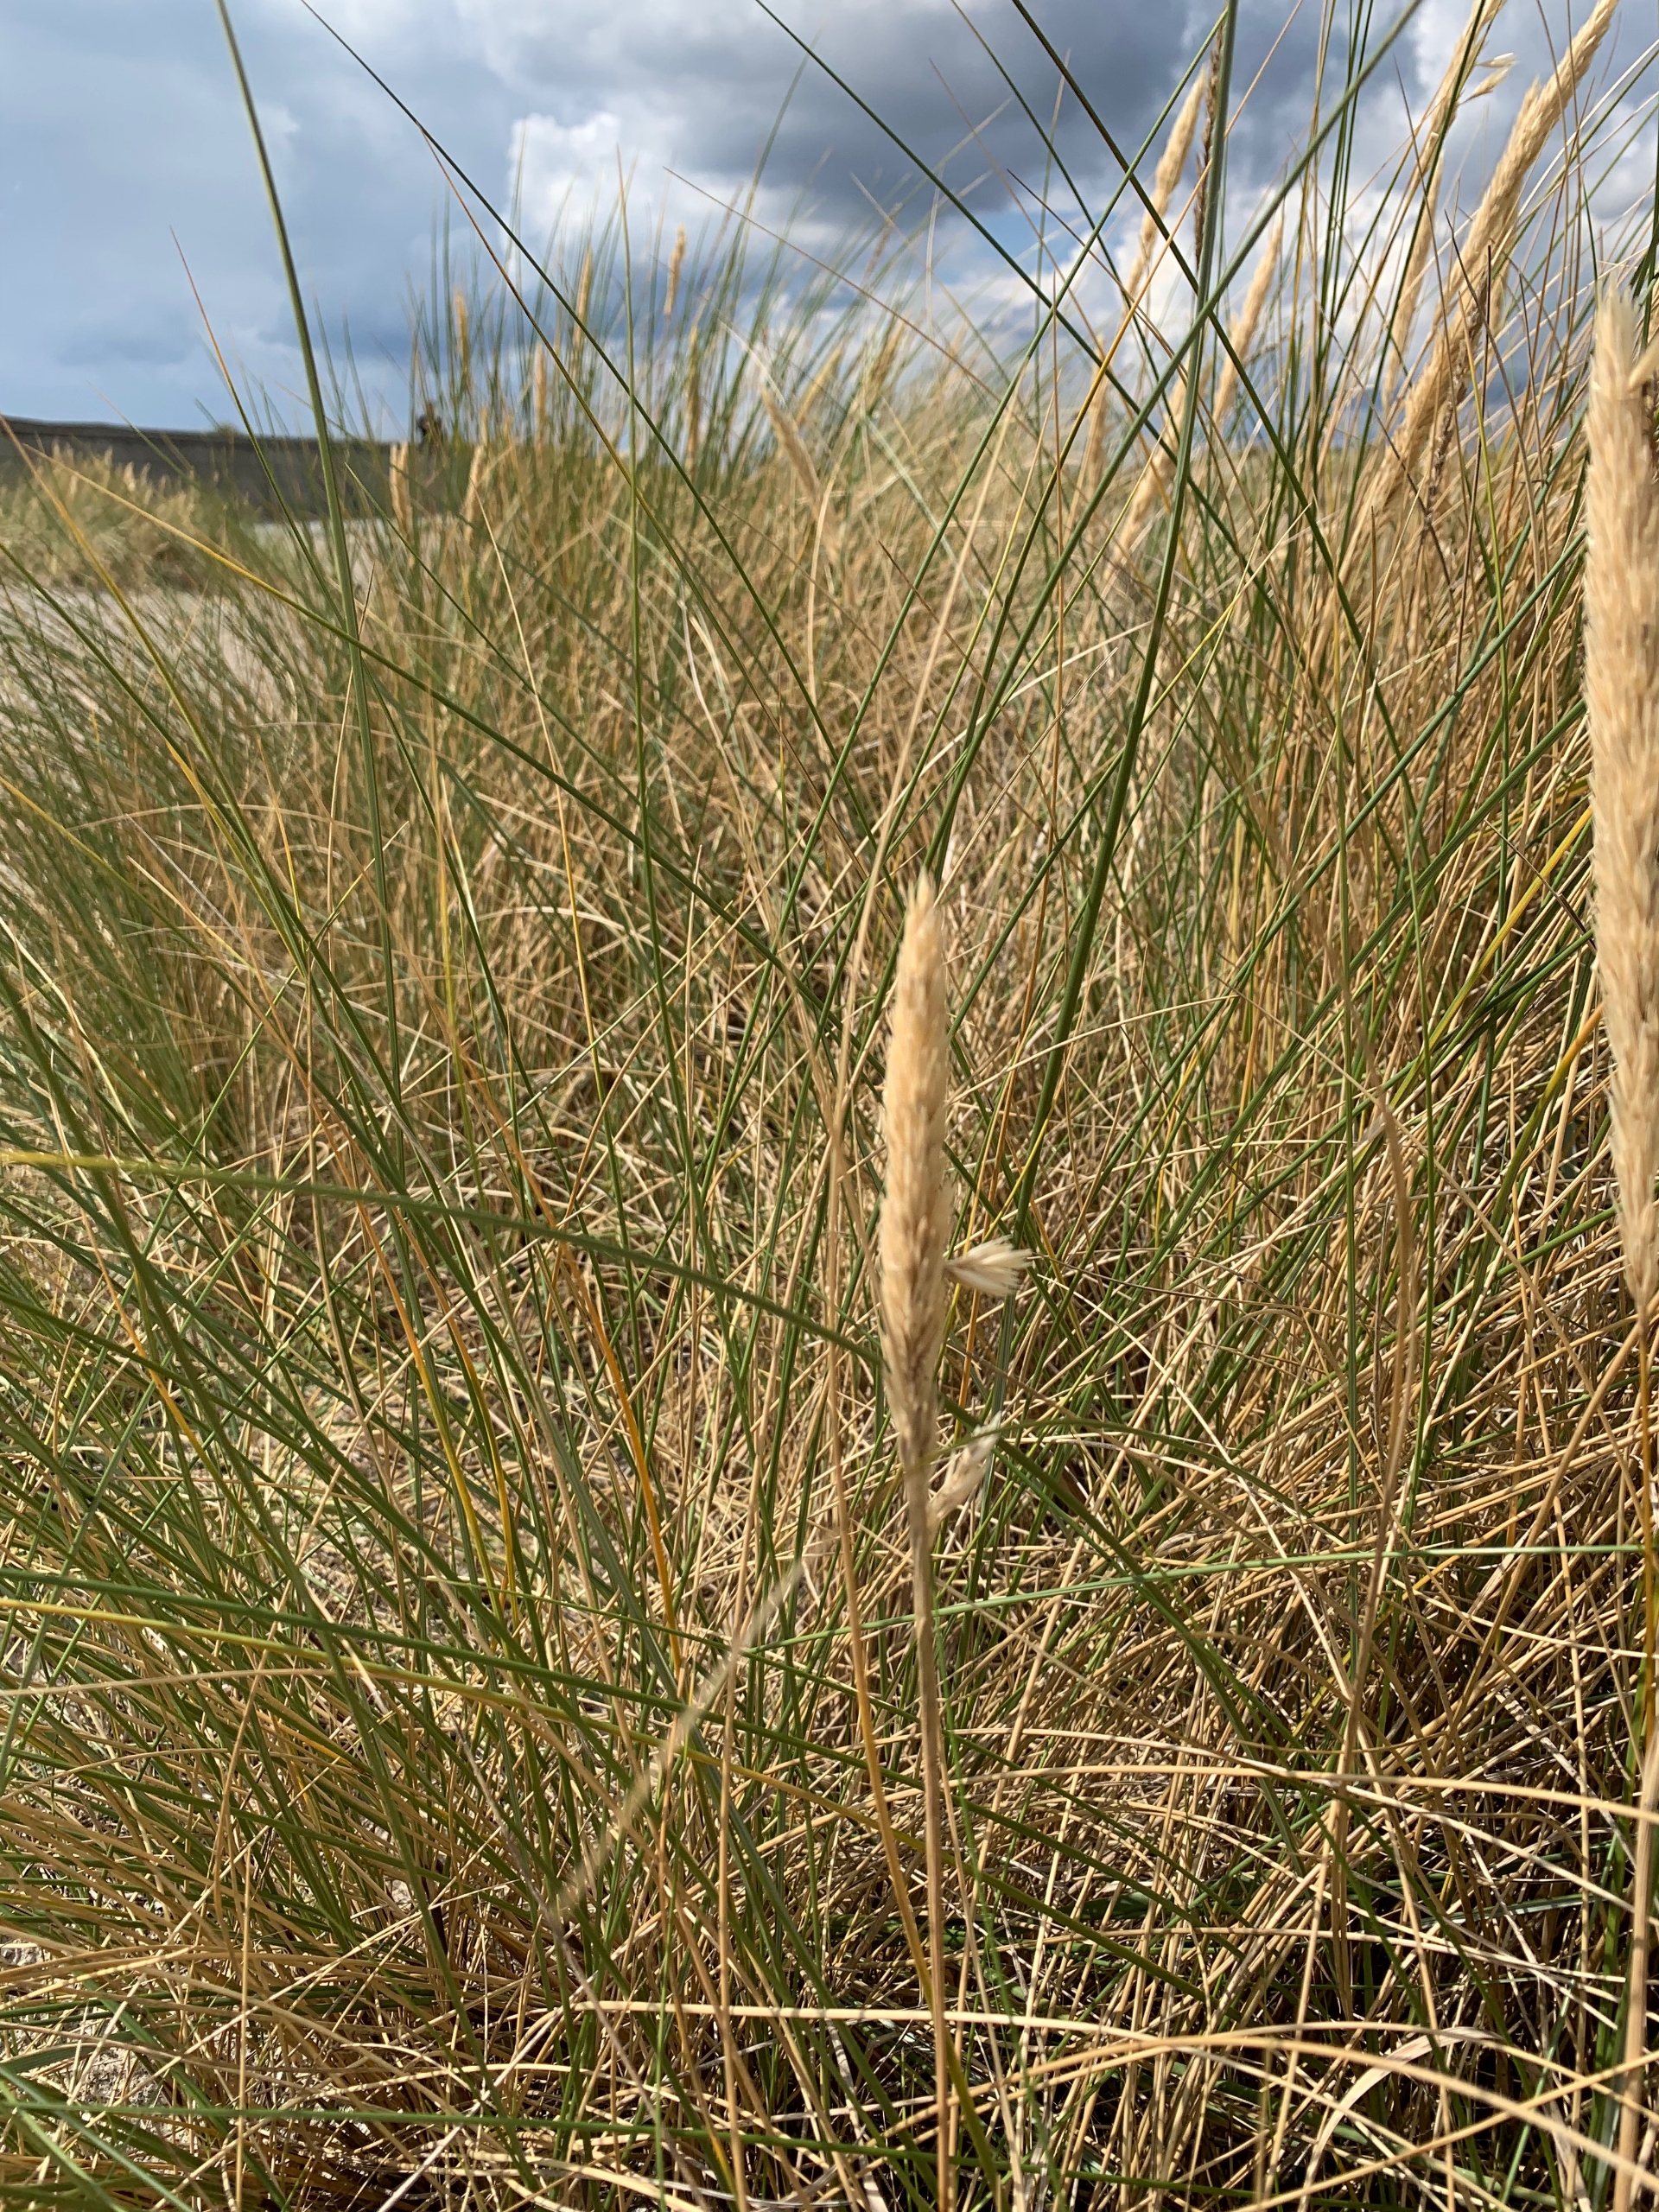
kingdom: Plantae
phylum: Tracheophyta
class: Liliopsida
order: Poales
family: Poaceae
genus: Calamagrostis
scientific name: Calamagrostis arenaria
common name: Sand-hjælme
